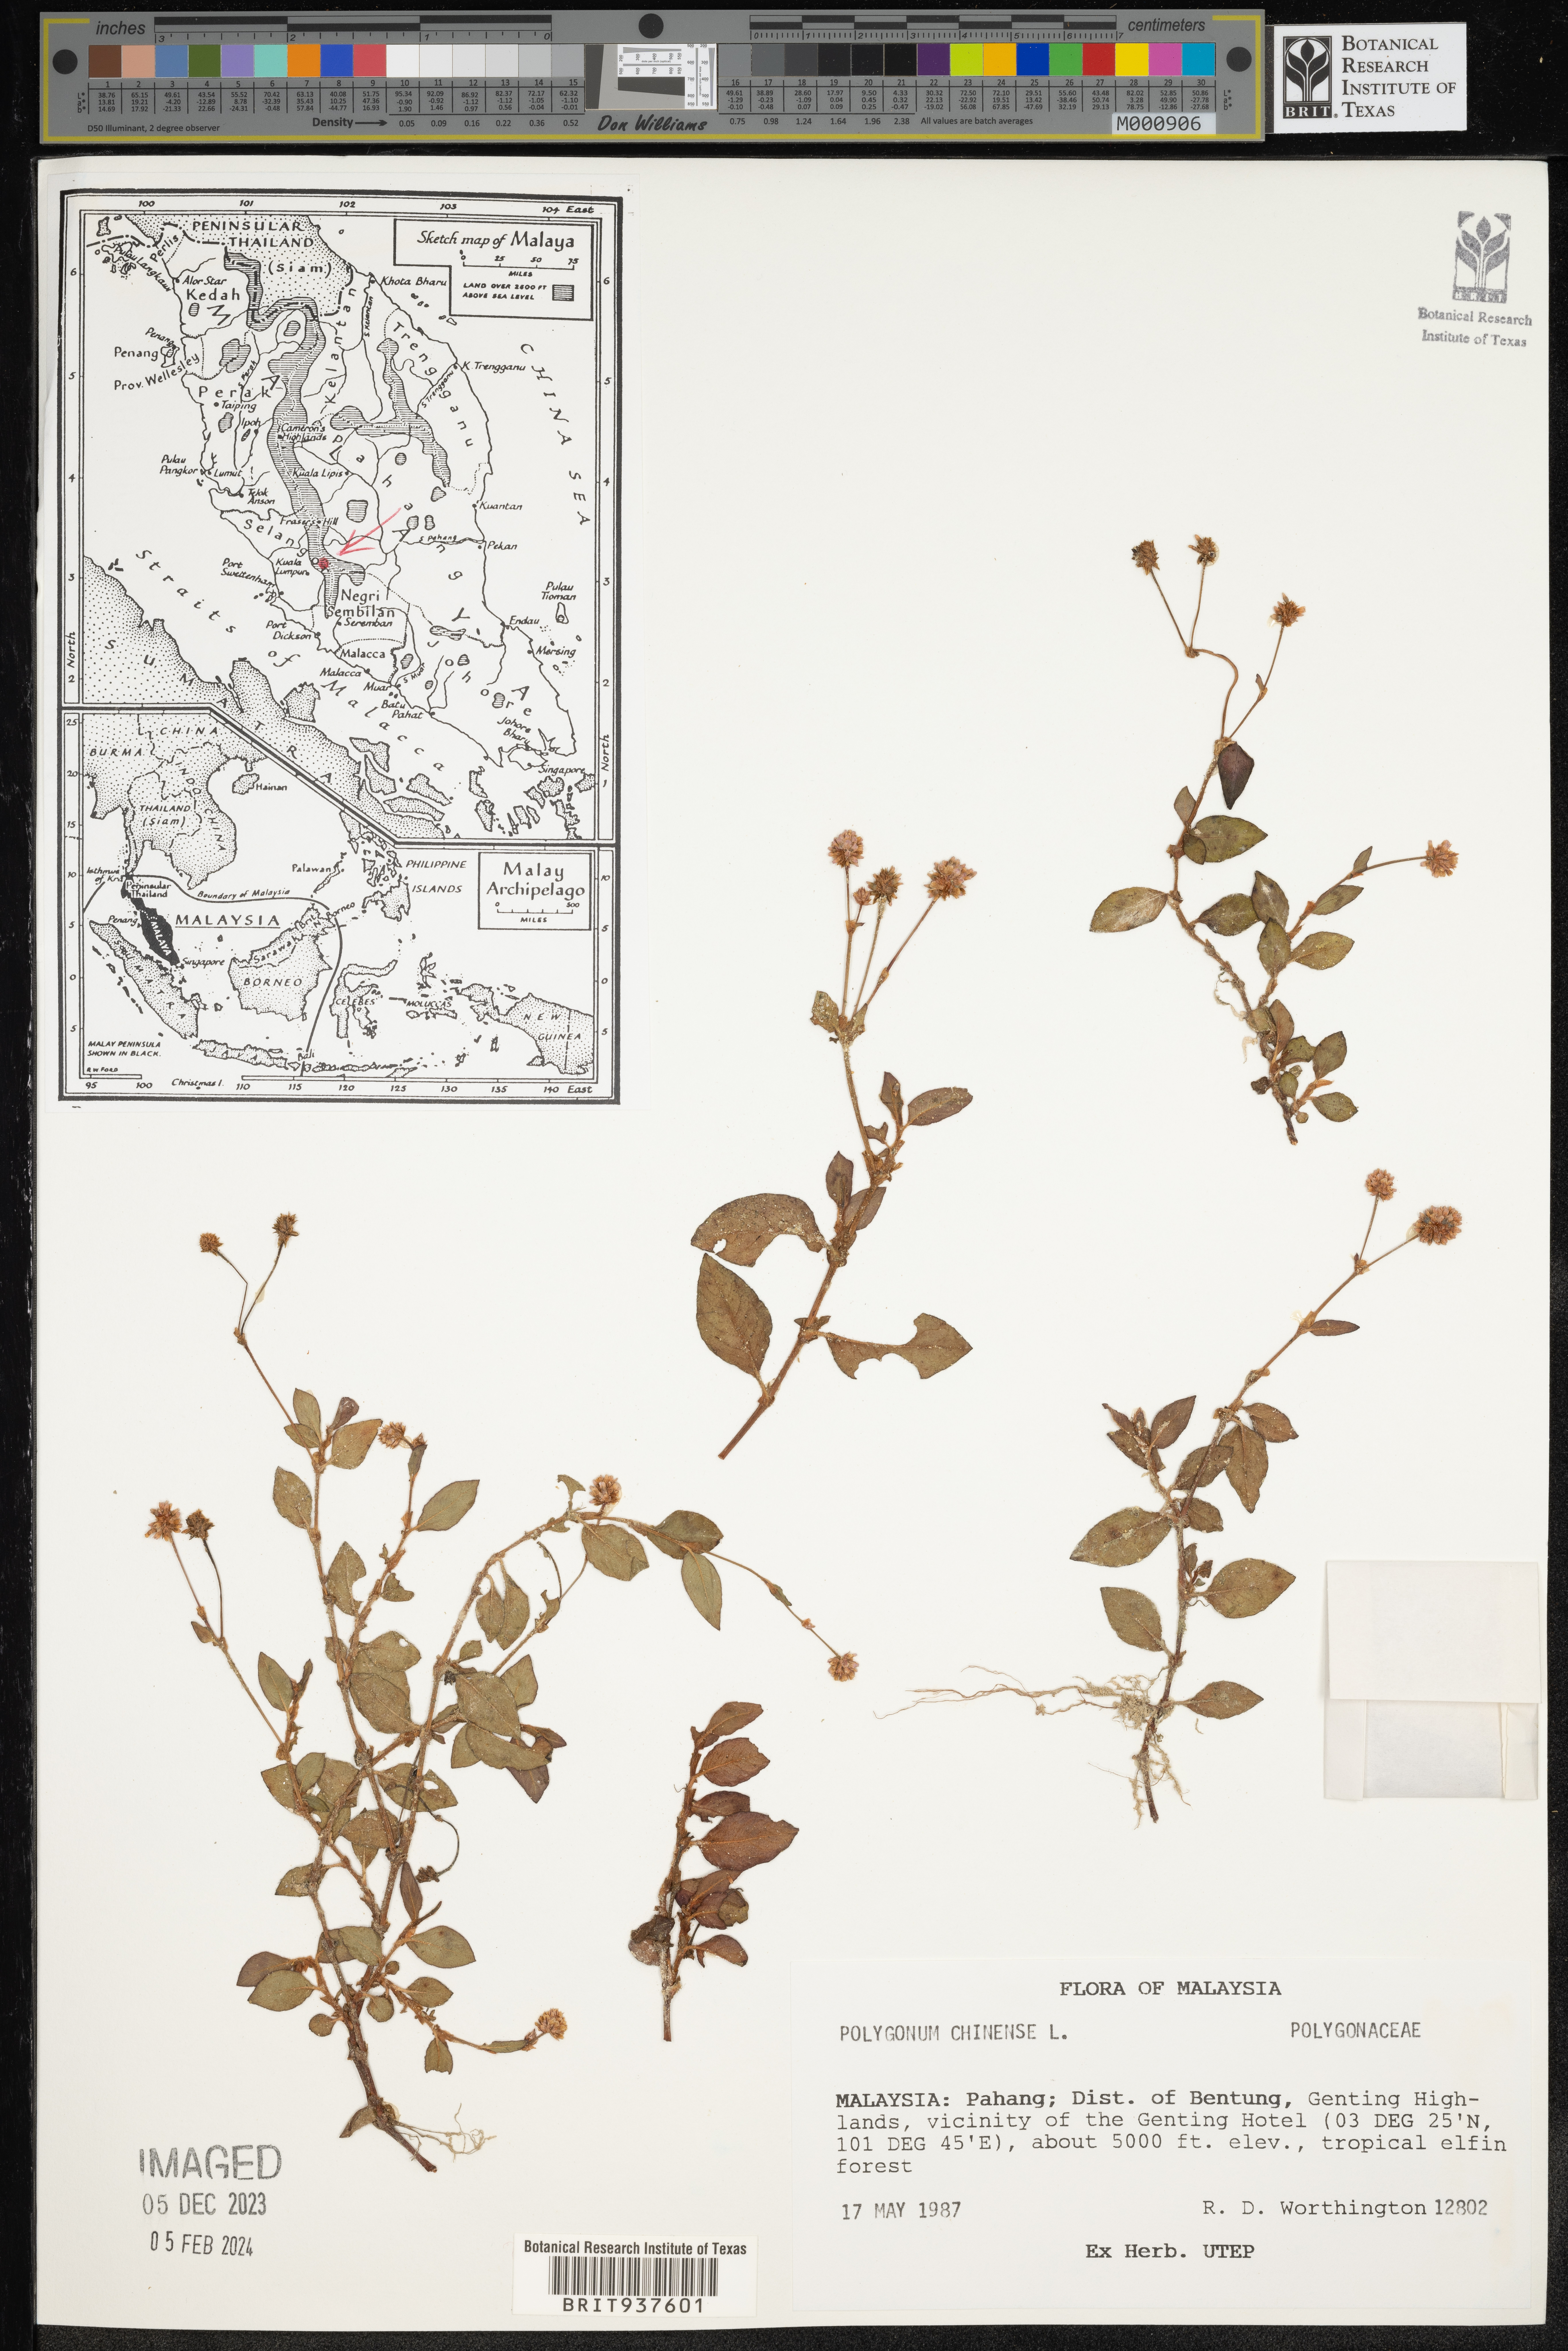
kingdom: Plantae
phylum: Tracheophyta
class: Magnoliopsida
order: Caryophyllales
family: Polygonaceae
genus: Polygonum
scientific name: Polygonum
